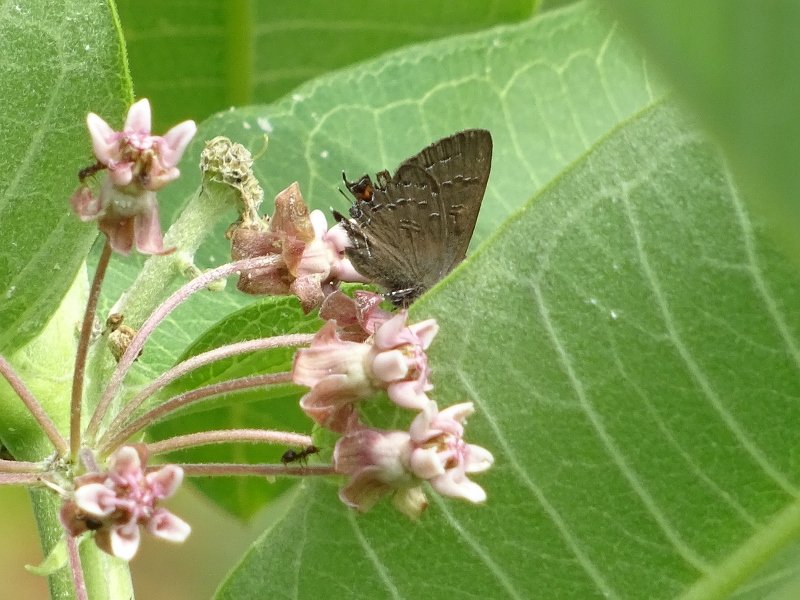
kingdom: Animalia
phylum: Arthropoda
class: Insecta
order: Lepidoptera
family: Lycaenidae
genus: Satyrium
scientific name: Satyrium calanus
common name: Banded Hairstreak
